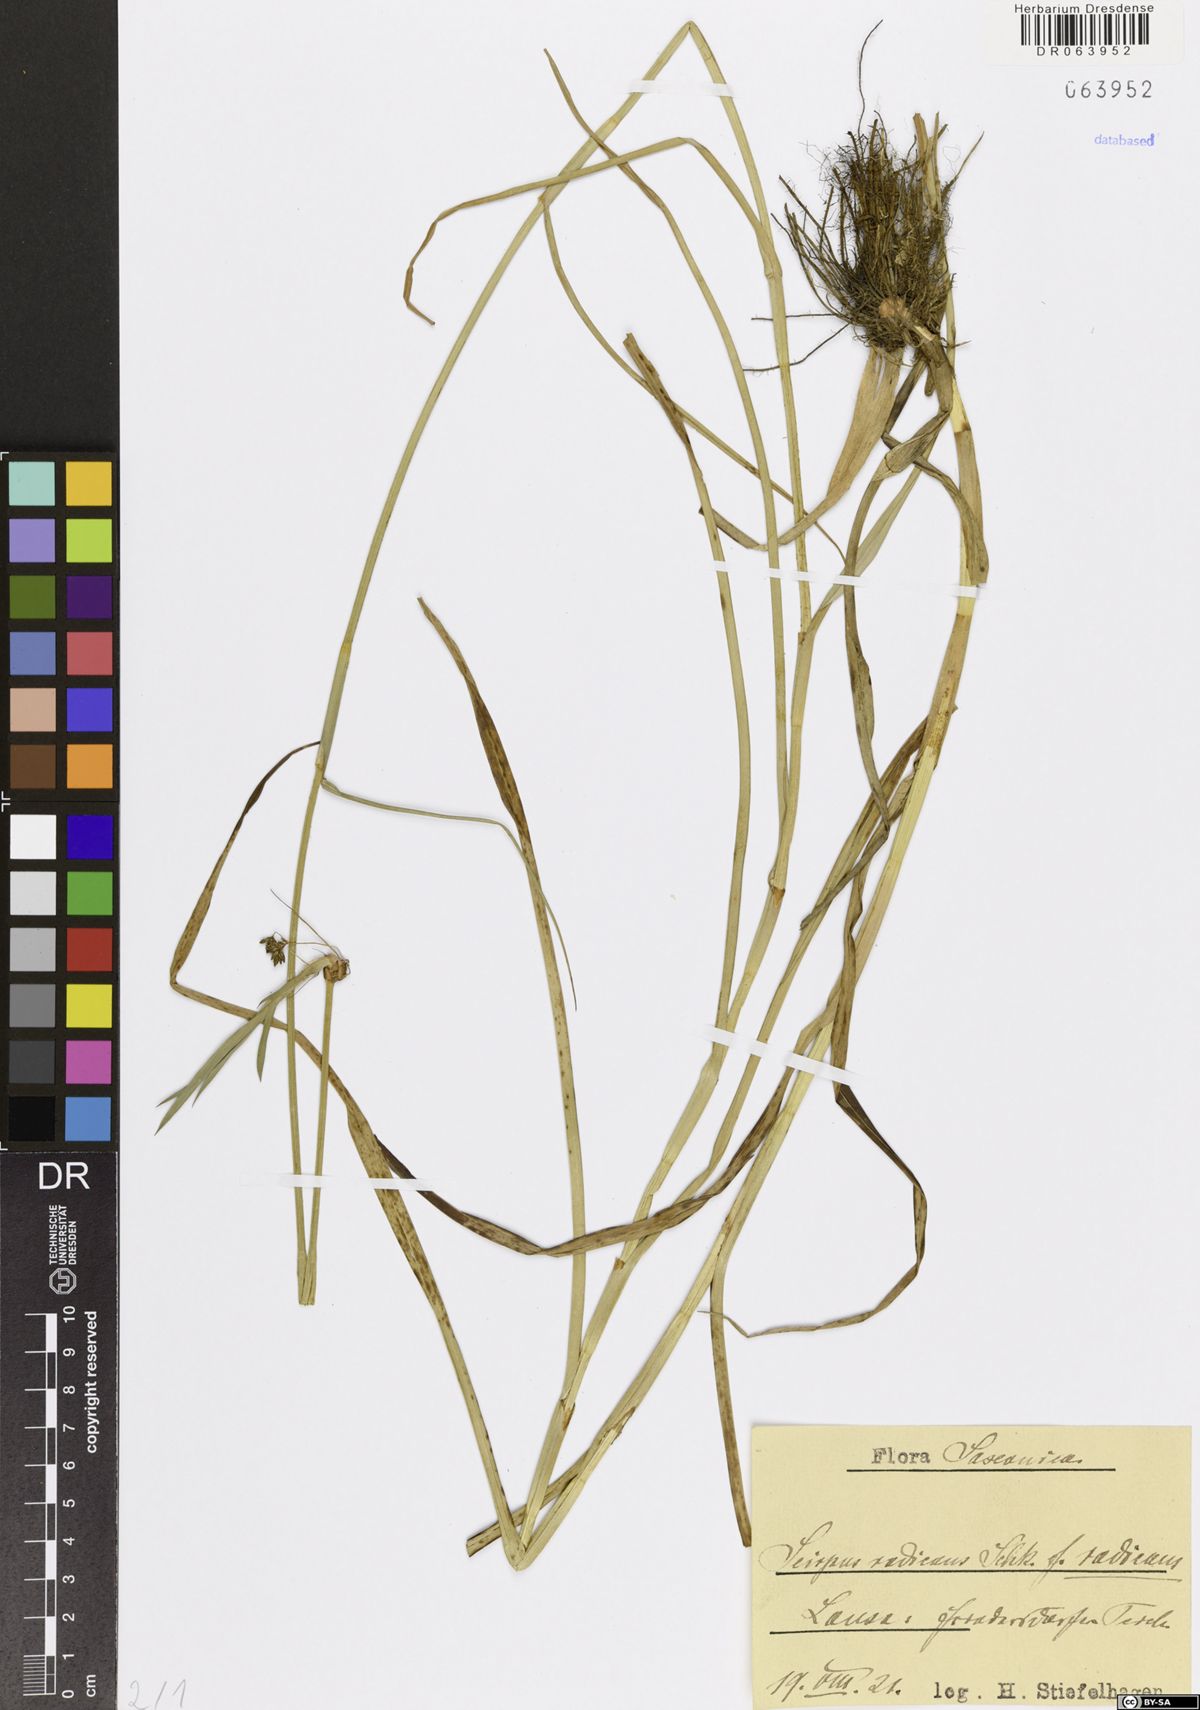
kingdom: Plantae
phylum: Tracheophyta
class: Liliopsida
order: Poales
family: Cyperaceae
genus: Scirpus
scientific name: Scirpus radicans
